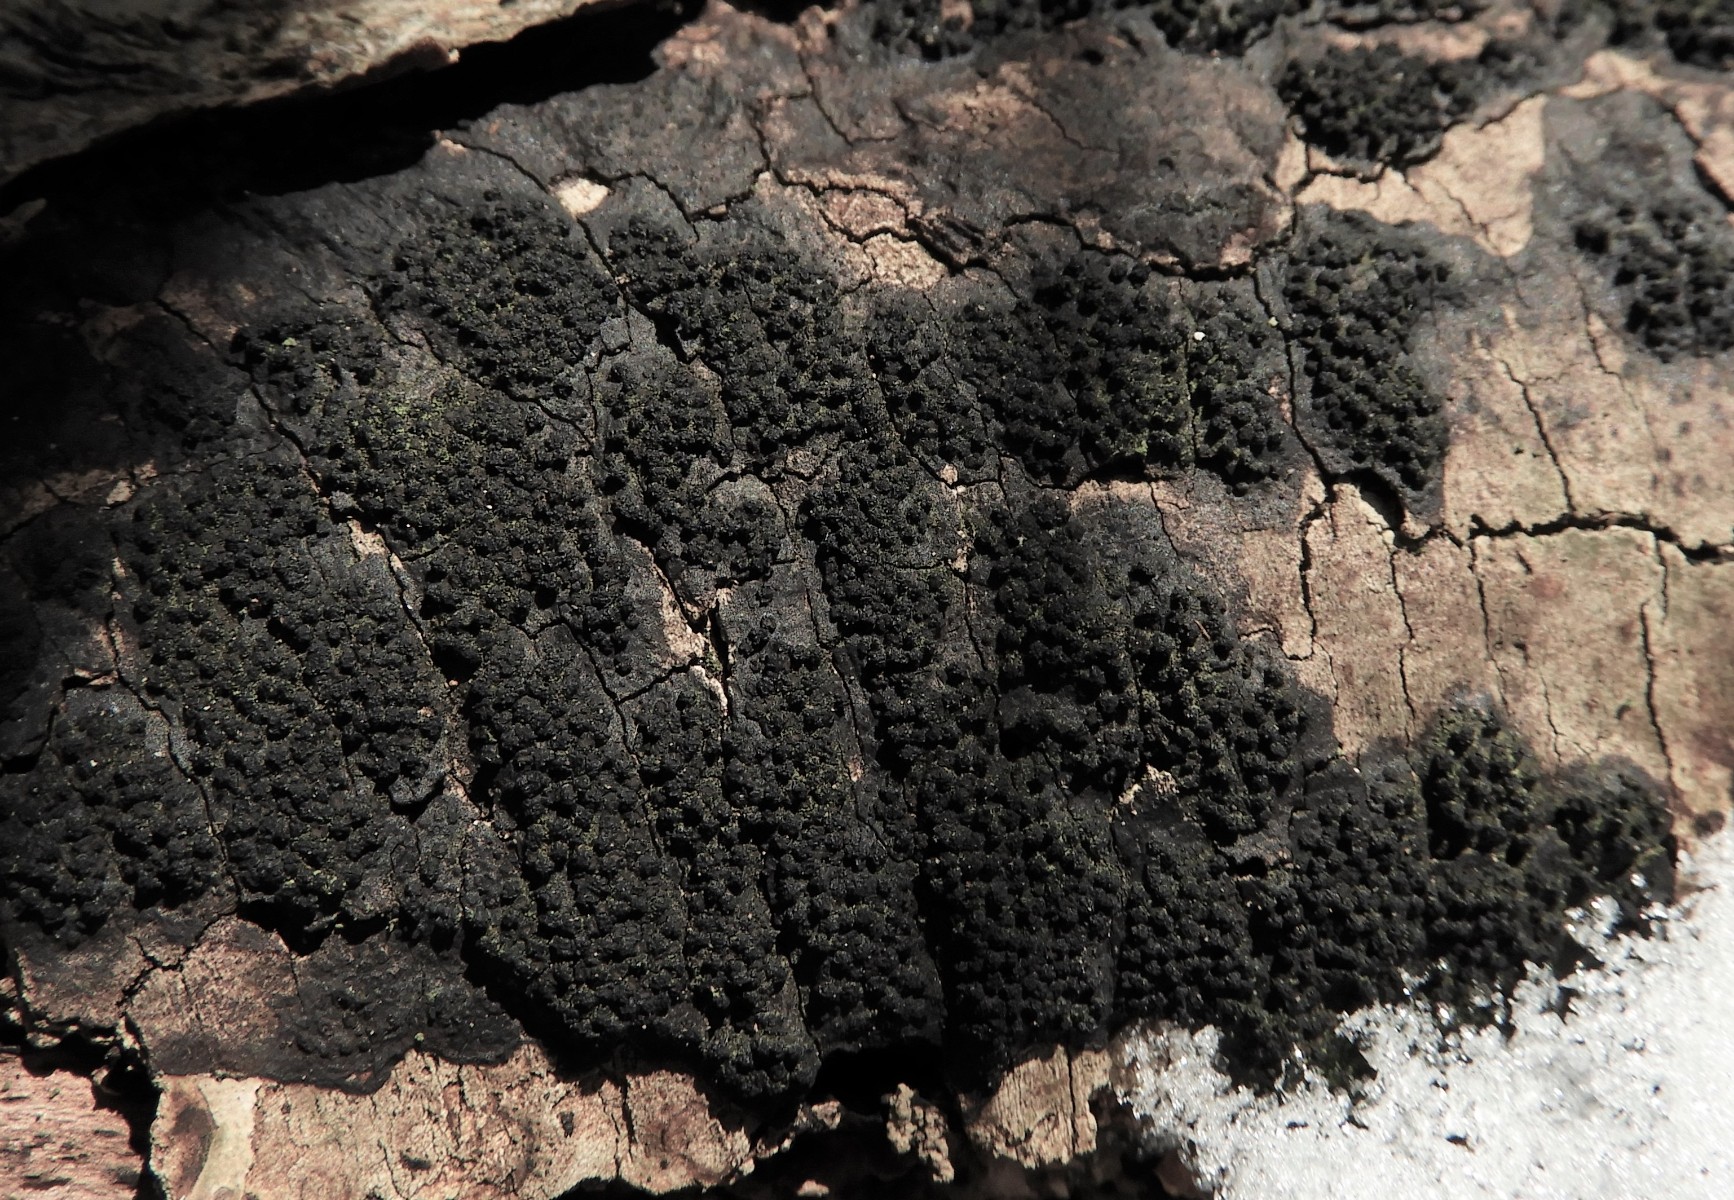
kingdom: Fungi
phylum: Ascomycota
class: Sordariomycetes
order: Xylariales
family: Diatrypaceae
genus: Eutypa
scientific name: Eutypa spinosa
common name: grov kulskorpe
